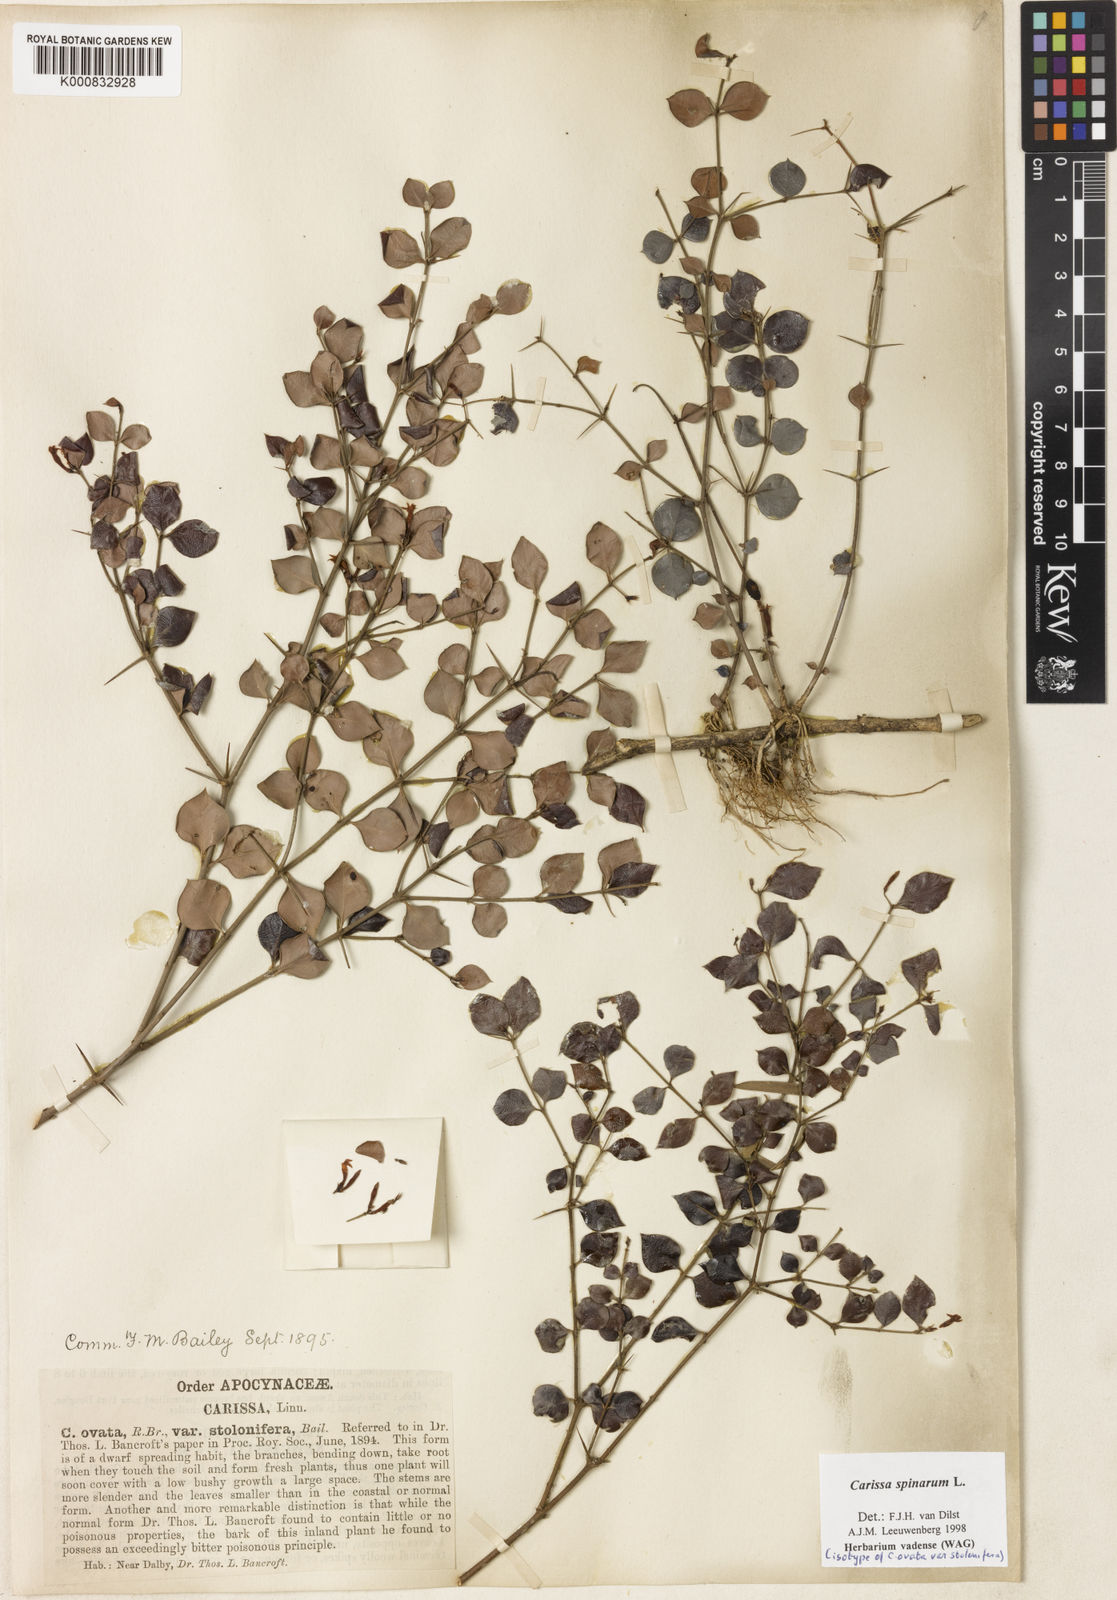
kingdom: Plantae
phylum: Tracheophyta
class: Magnoliopsida
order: Gentianales
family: Apocynaceae
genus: Carissa
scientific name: Carissa spinarum
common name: Egyptian carissa
